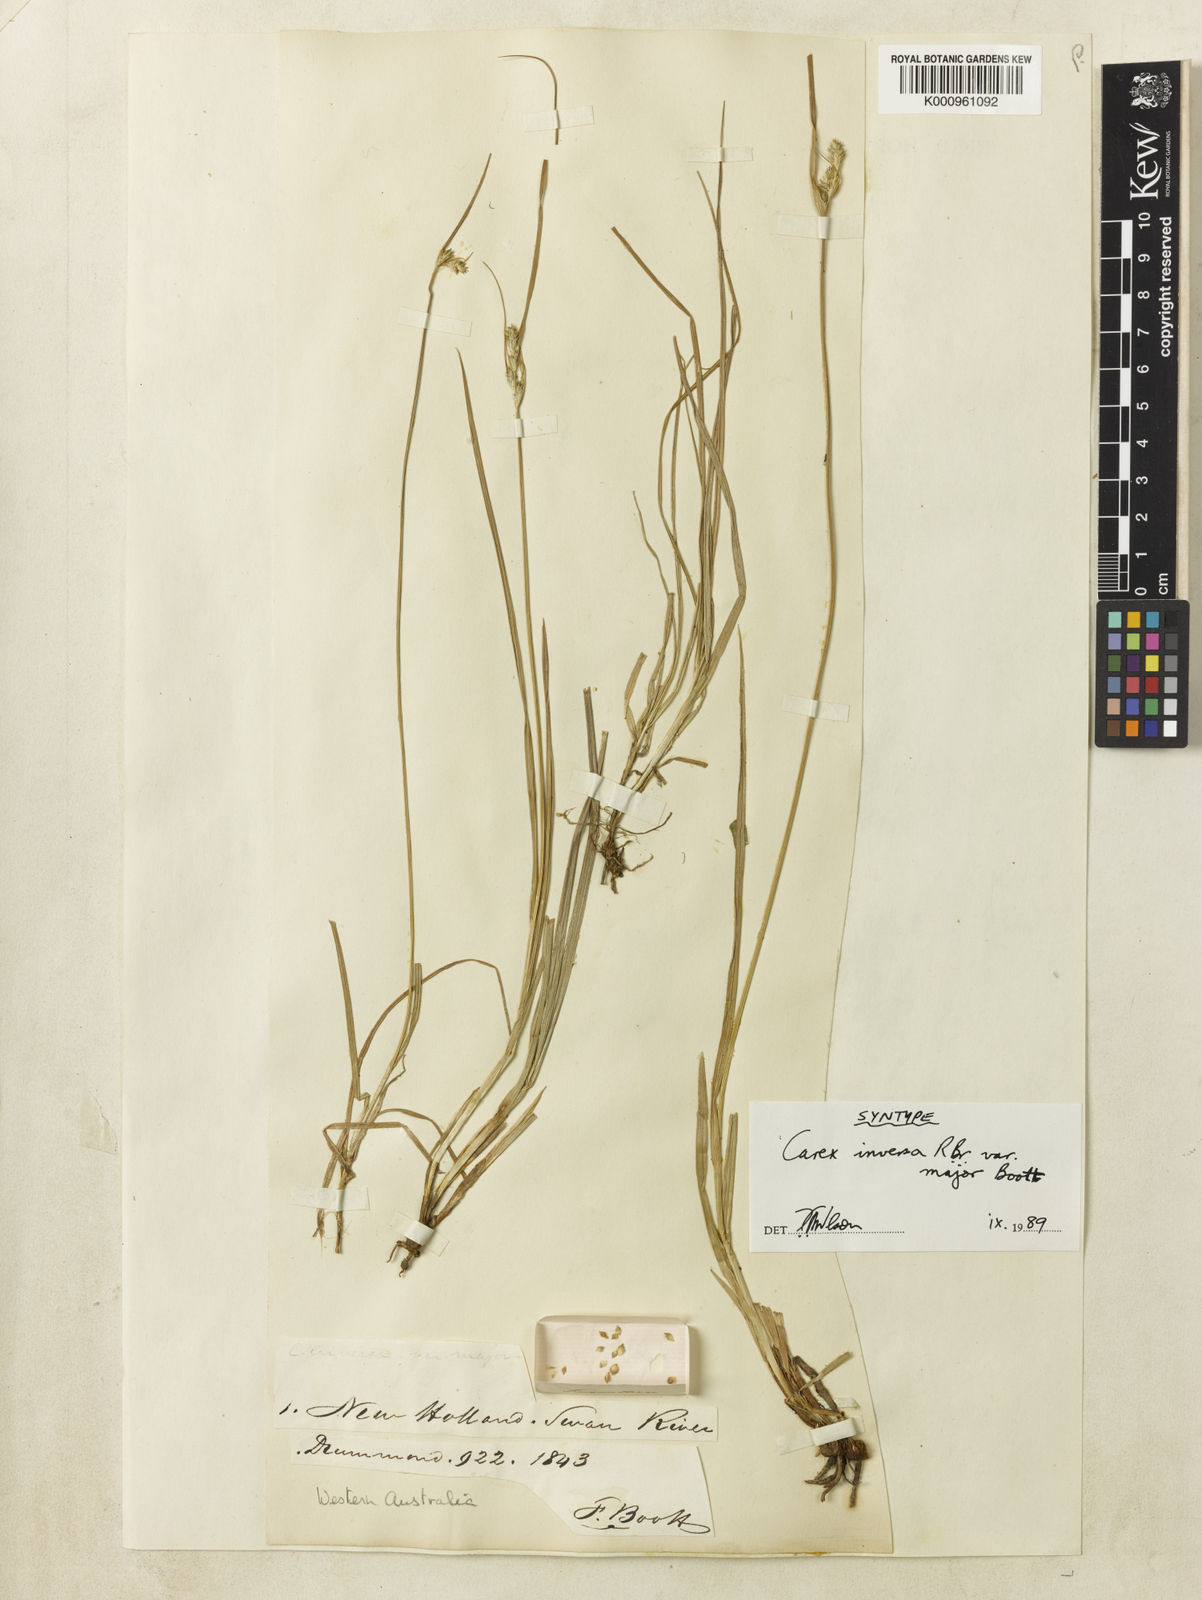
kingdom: Plantae
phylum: Tracheophyta
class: Liliopsida
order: Poales
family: Cyperaceae
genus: Carex
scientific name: Carex inversa
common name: Knob sedge
